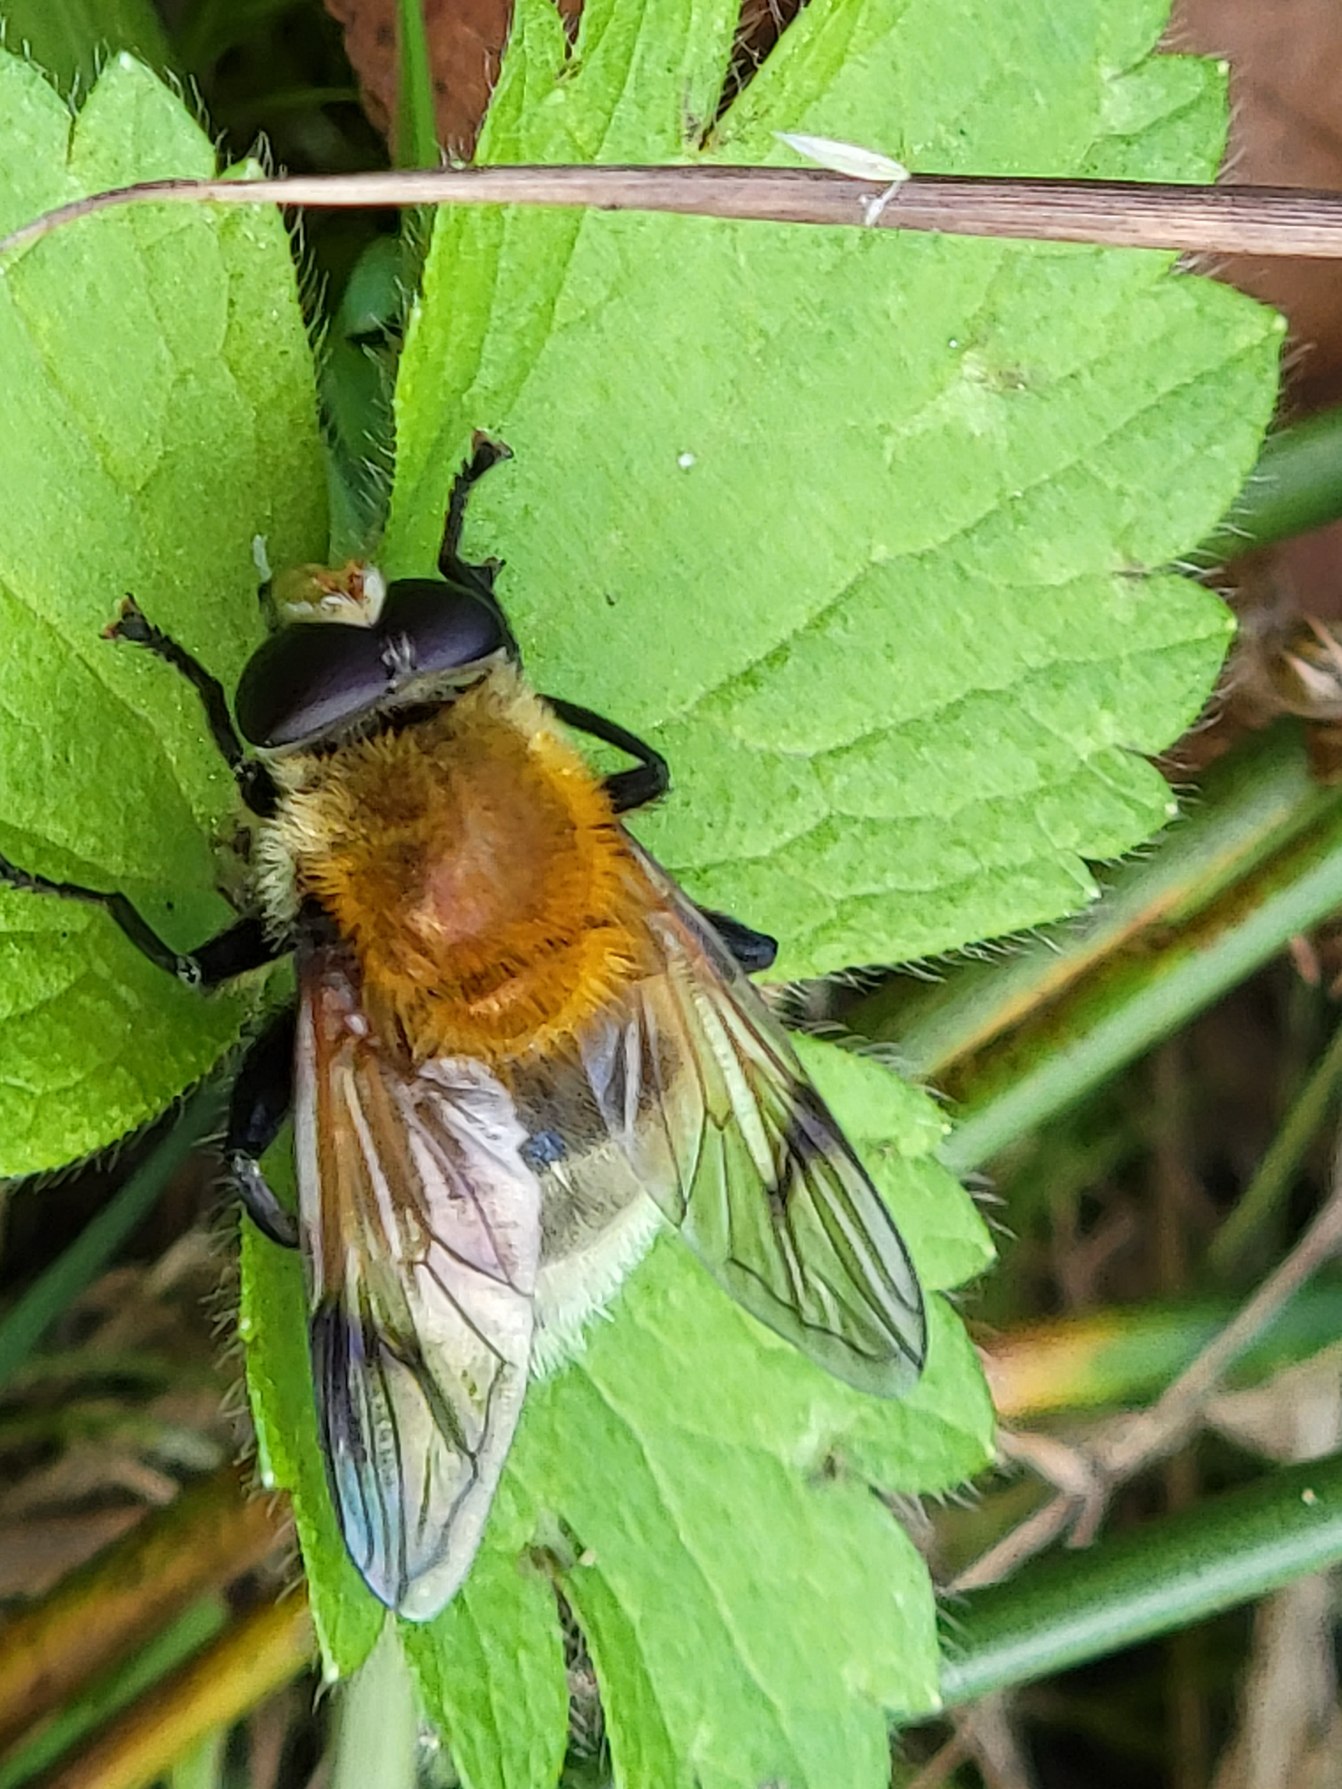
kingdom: Animalia
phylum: Arthropoda
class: Insecta
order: Diptera
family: Syrphidae
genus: Sericomyia
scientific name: Sericomyia superbiens
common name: Brun bjørnesvirreflue
